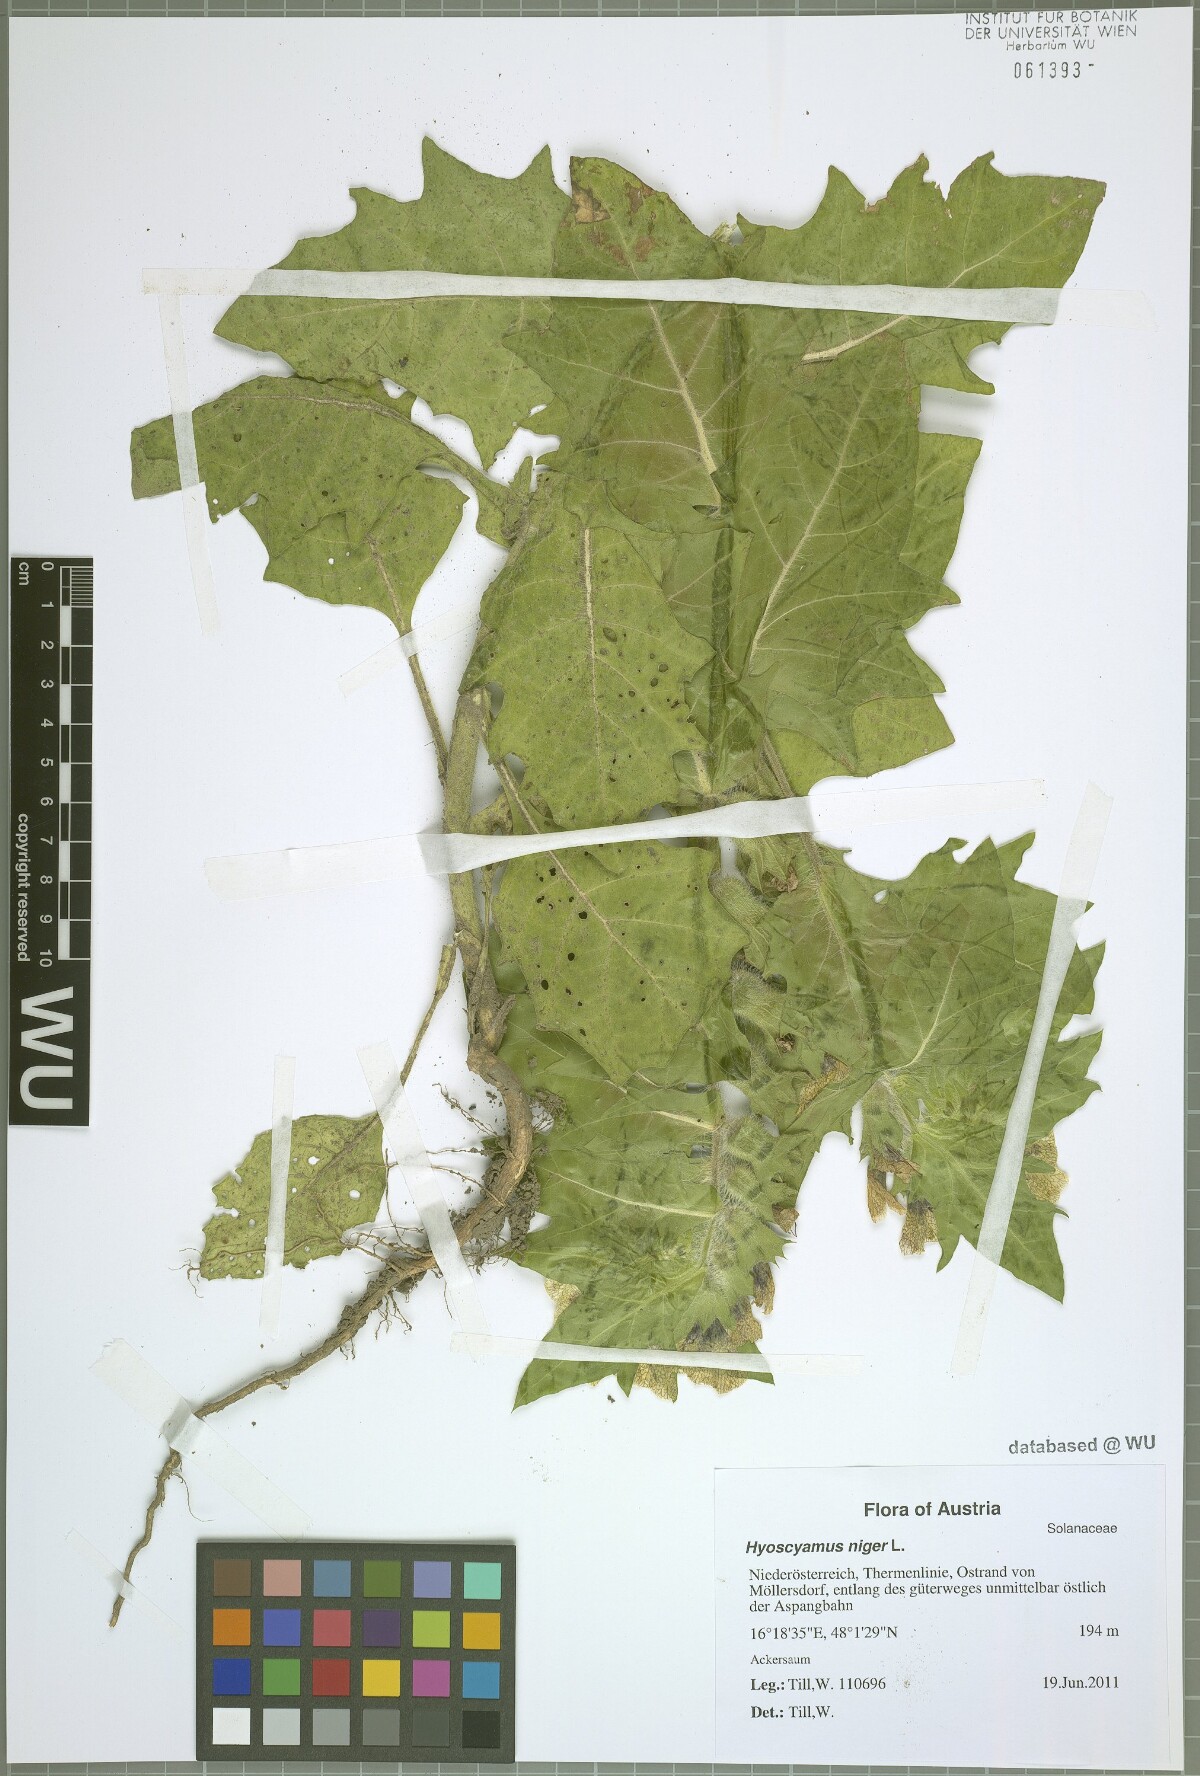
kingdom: Plantae
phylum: Tracheophyta
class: Magnoliopsida
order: Solanales
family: Solanaceae
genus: Hyoscyamus
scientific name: Hyoscyamus niger
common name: Henbane
